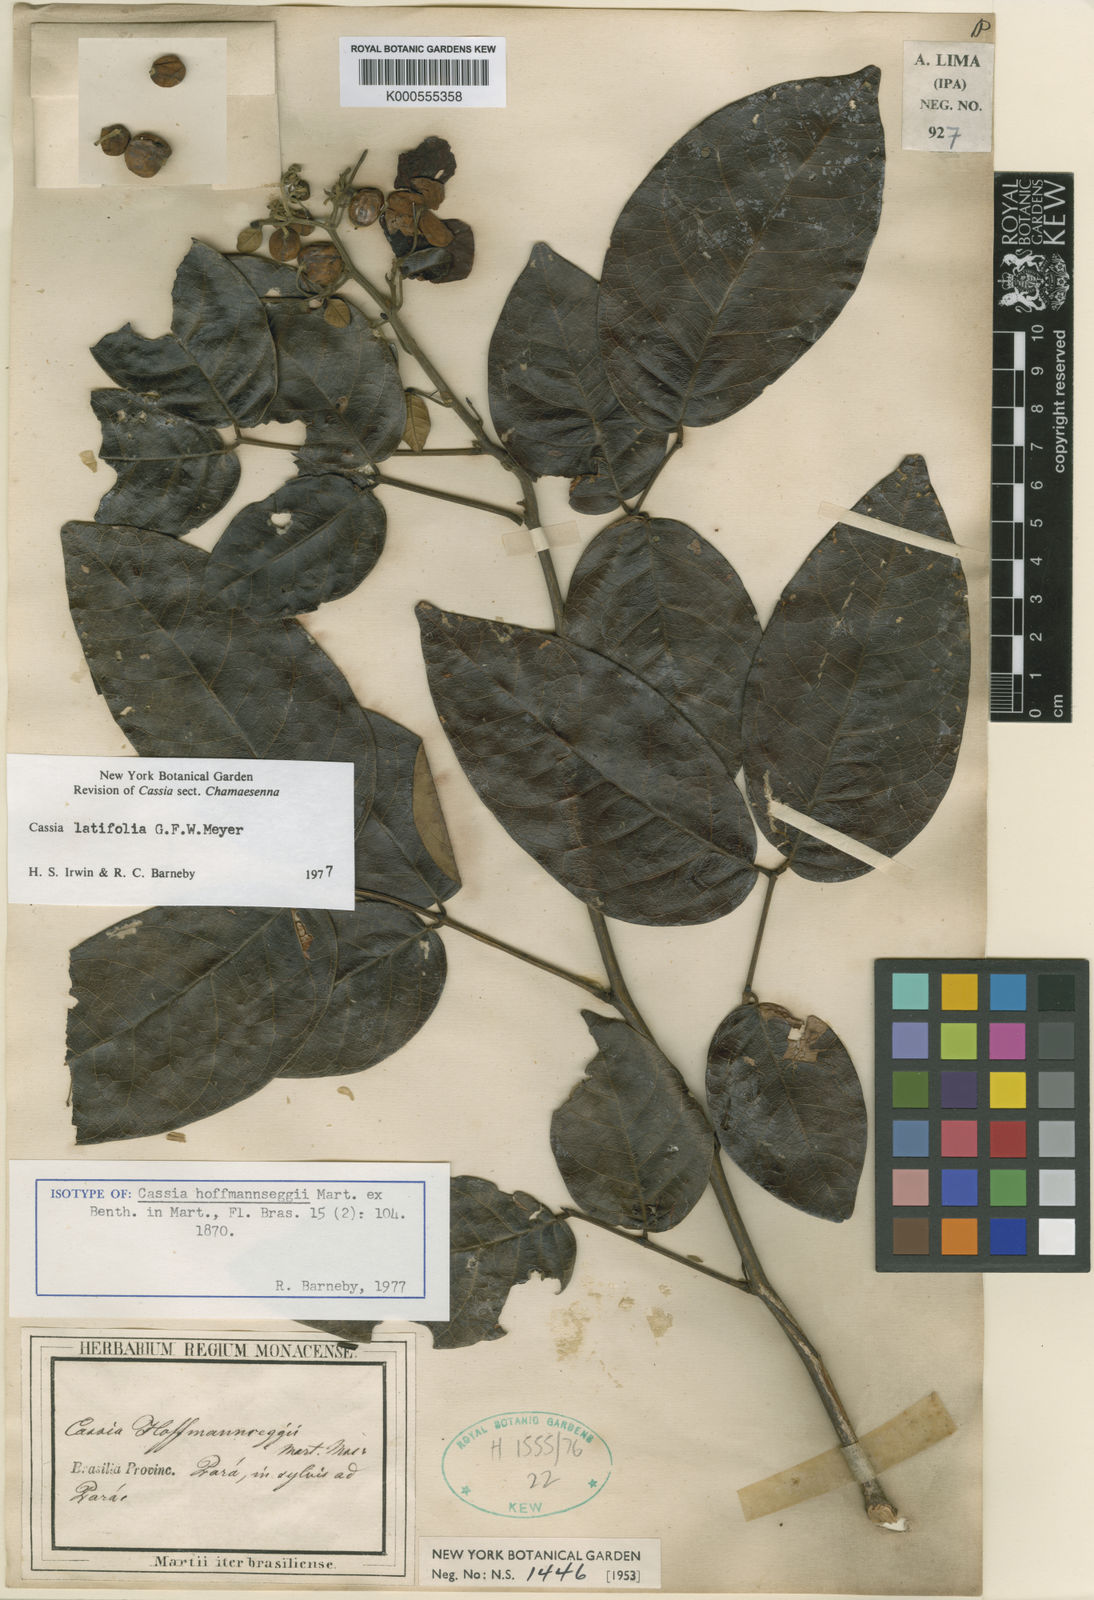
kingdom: Plantae
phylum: Tracheophyta
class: Magnoliopsida
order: Fabales
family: Fabaceae
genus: Senna
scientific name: Senna latifolia
